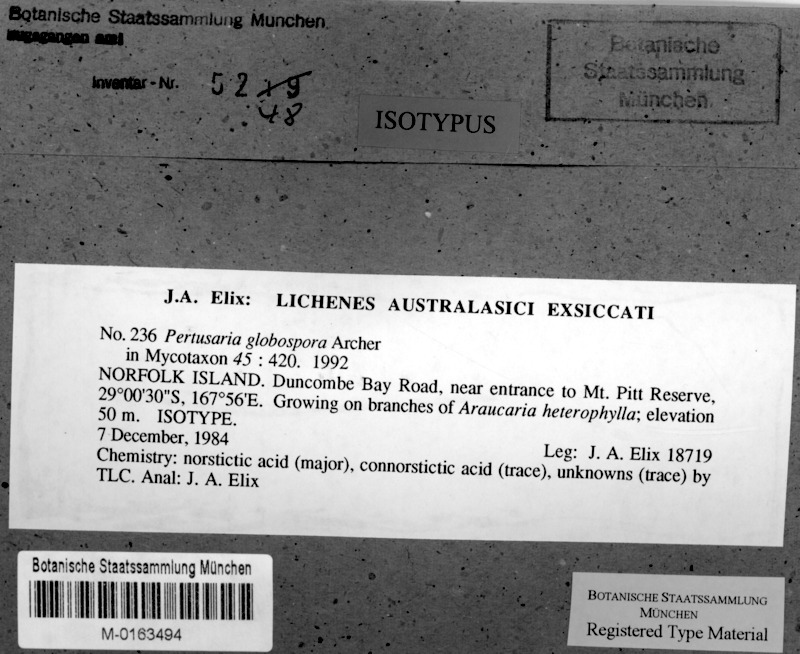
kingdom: Fungi
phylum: Ascomycota
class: Lecanoromycetes
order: Pertusariales
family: Pertusariaceae
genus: Pertusaria
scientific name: Pertusaria globospora
